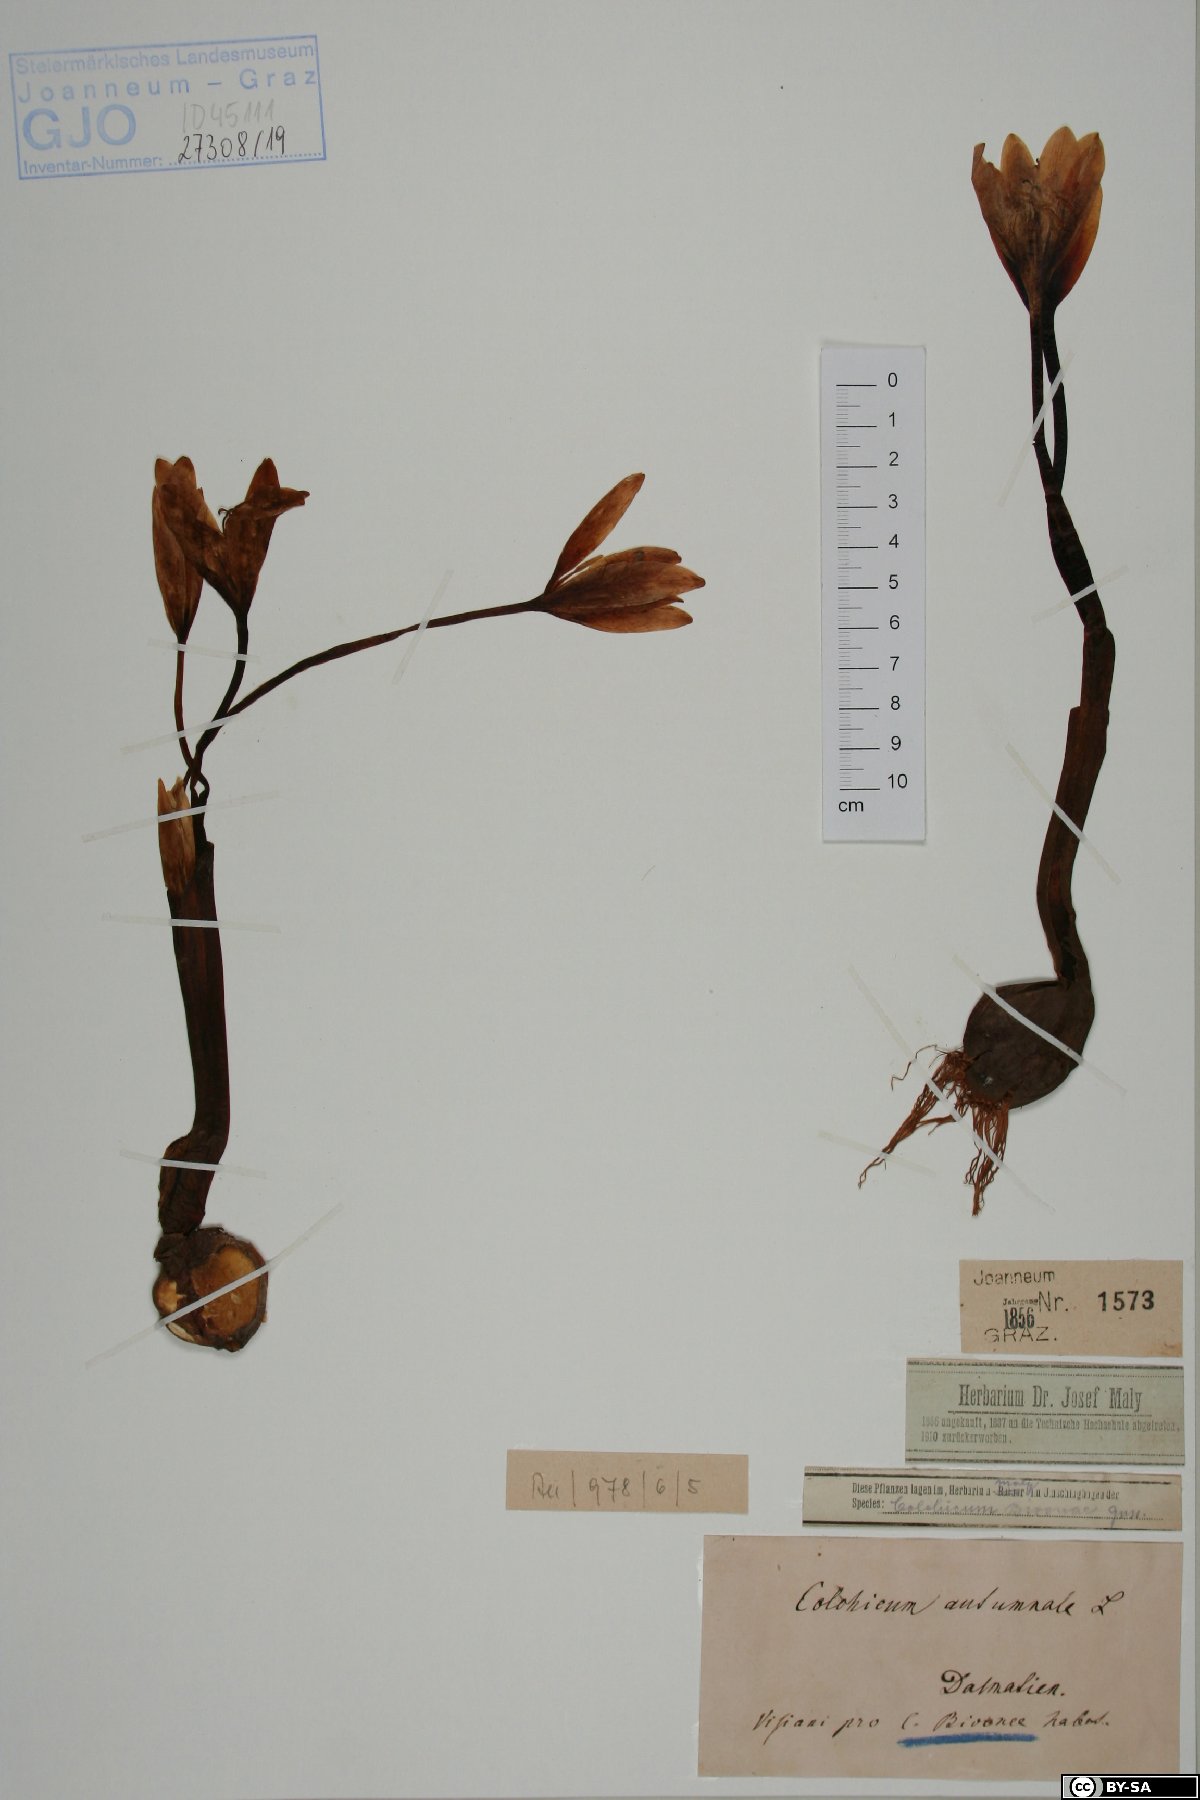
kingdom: Plantae
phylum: Tracheophyta
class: Liliopsida
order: Liliales
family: Colchicaceae
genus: Colchicum
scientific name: Colchicum autumnale
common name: Autumn crocus
